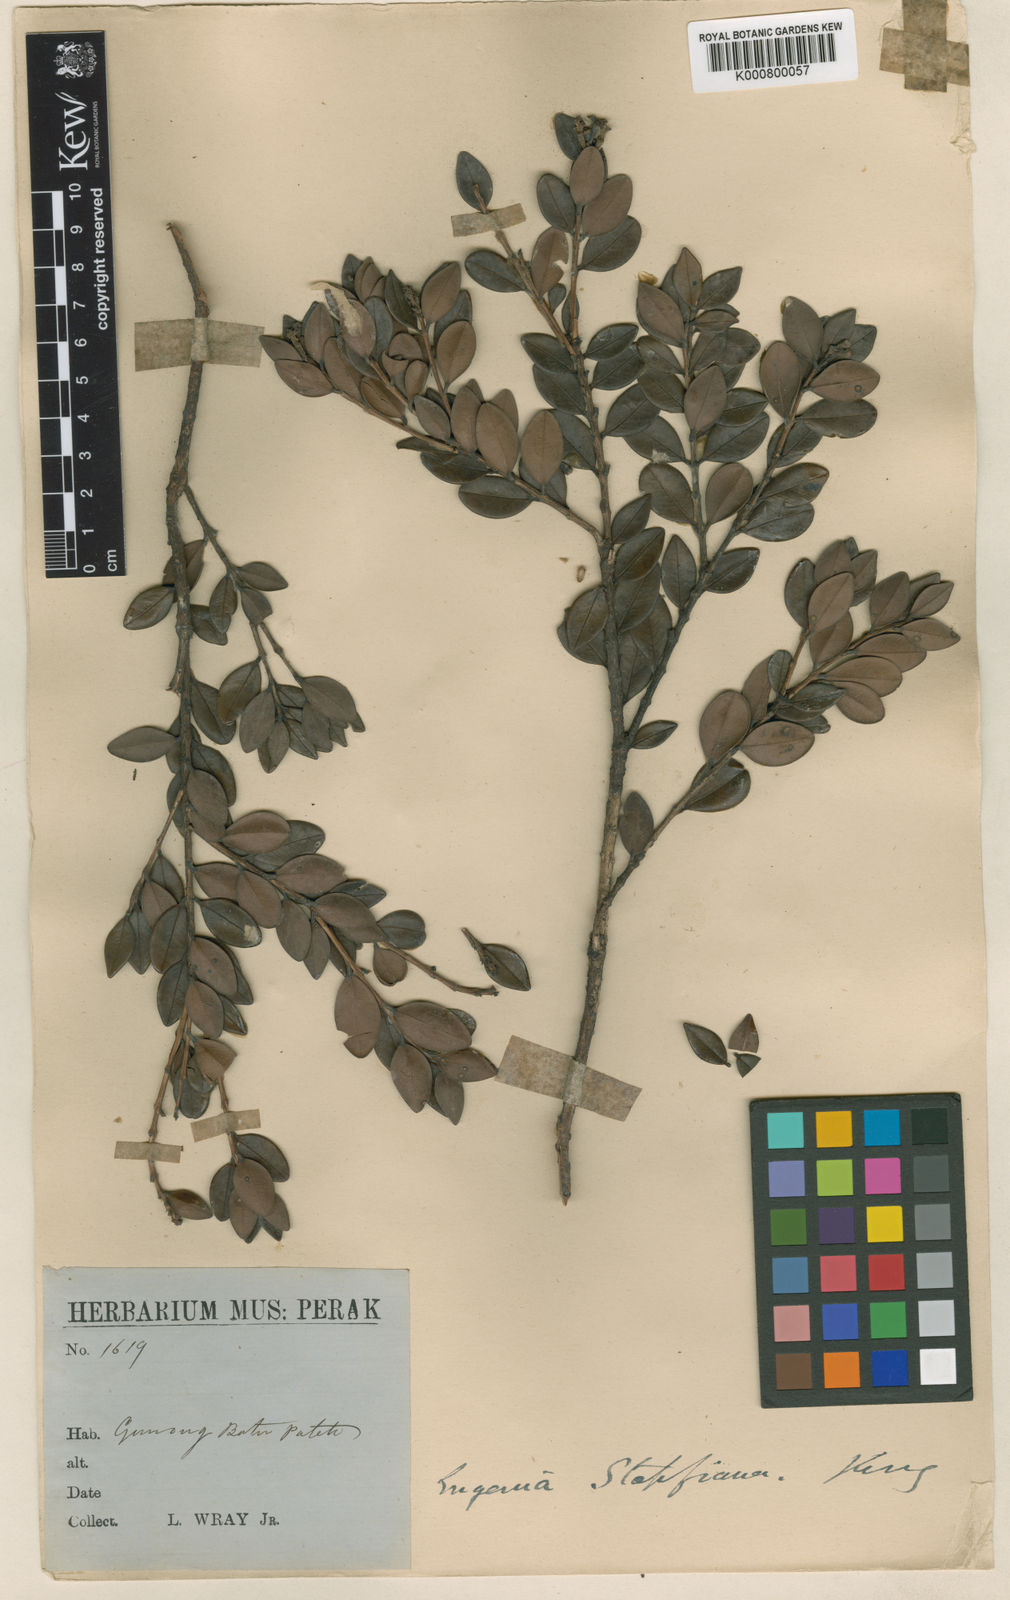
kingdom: Plantae
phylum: Tracheophyta
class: Magnoliopsida
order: Myrtales
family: Myrtaceae
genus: Syzygium
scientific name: Syzygium stapfianum
